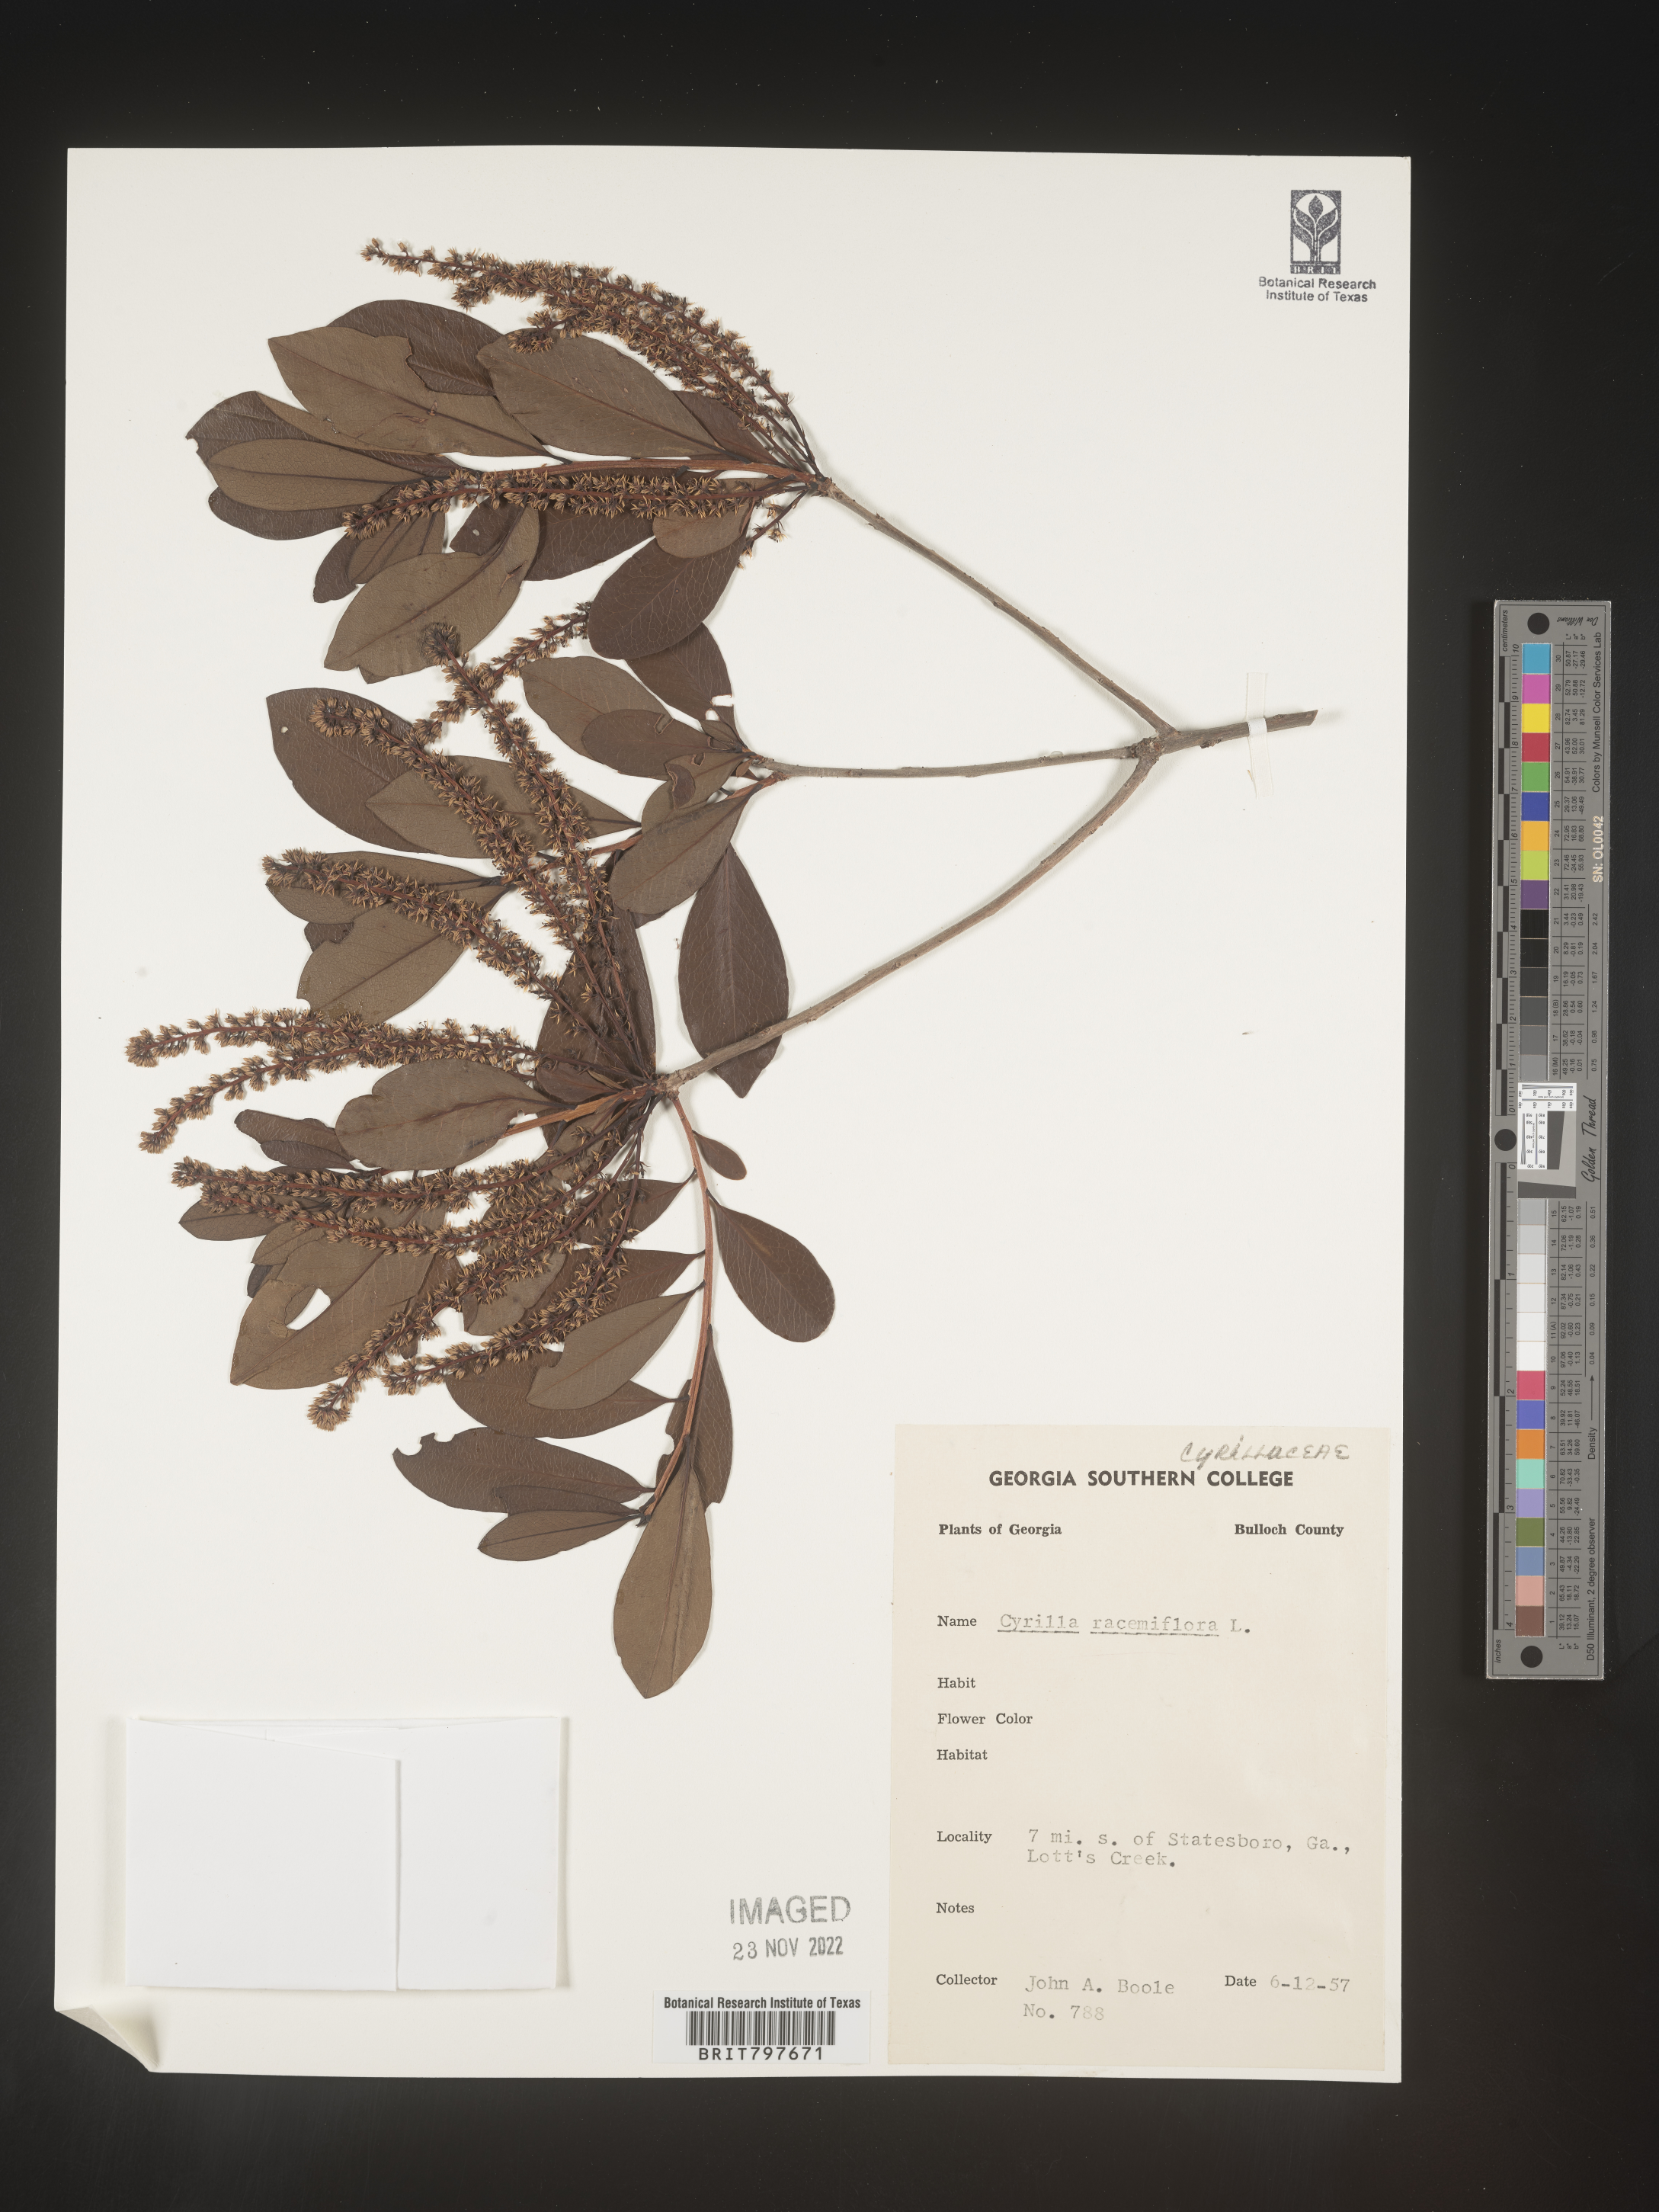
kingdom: Plantae
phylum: Tracheophyta
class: Magnoliopsida
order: Ericales
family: Cyrillaceae
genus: Cyrilla
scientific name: Cyrilla racemiflora
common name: Black titi
